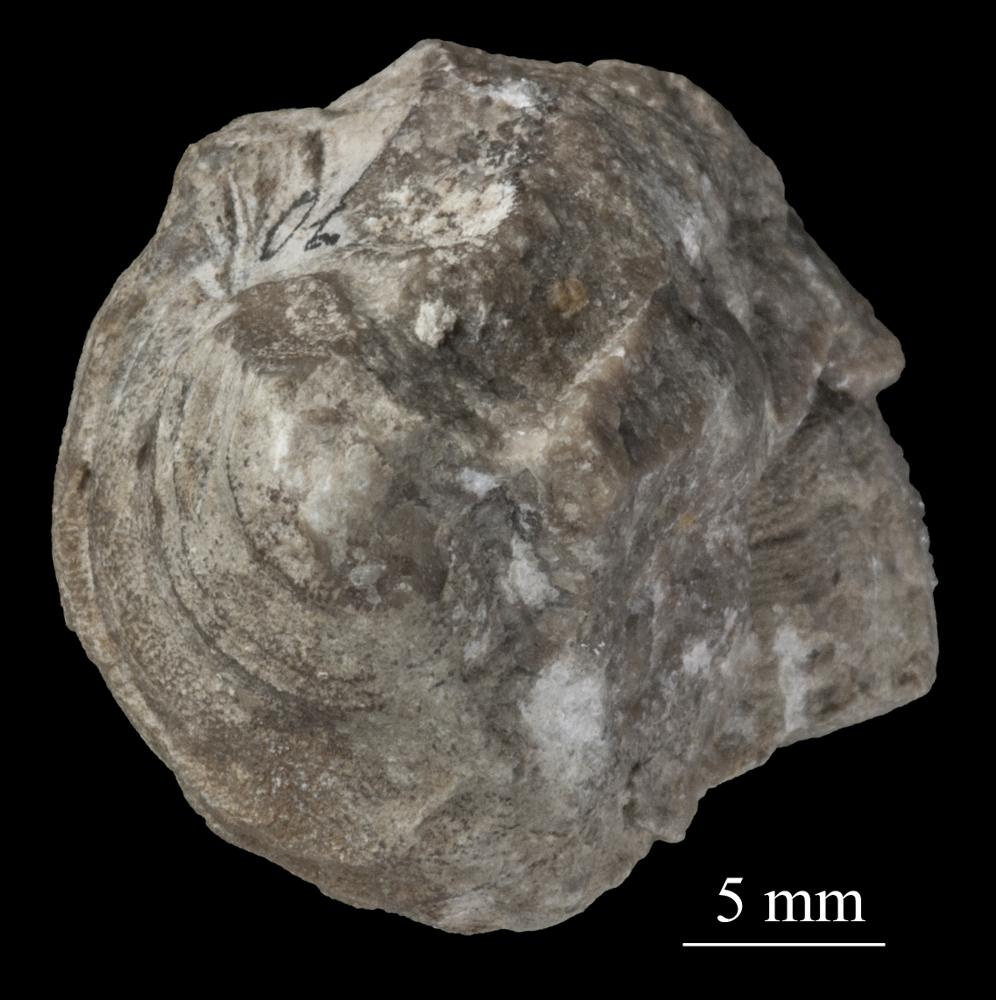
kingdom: Animalia
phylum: Mollusca
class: Gastropoda
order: Pleurotomariida
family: Phanerotrematidae
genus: Brachytomaria
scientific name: Brachytomaria nodulosa
